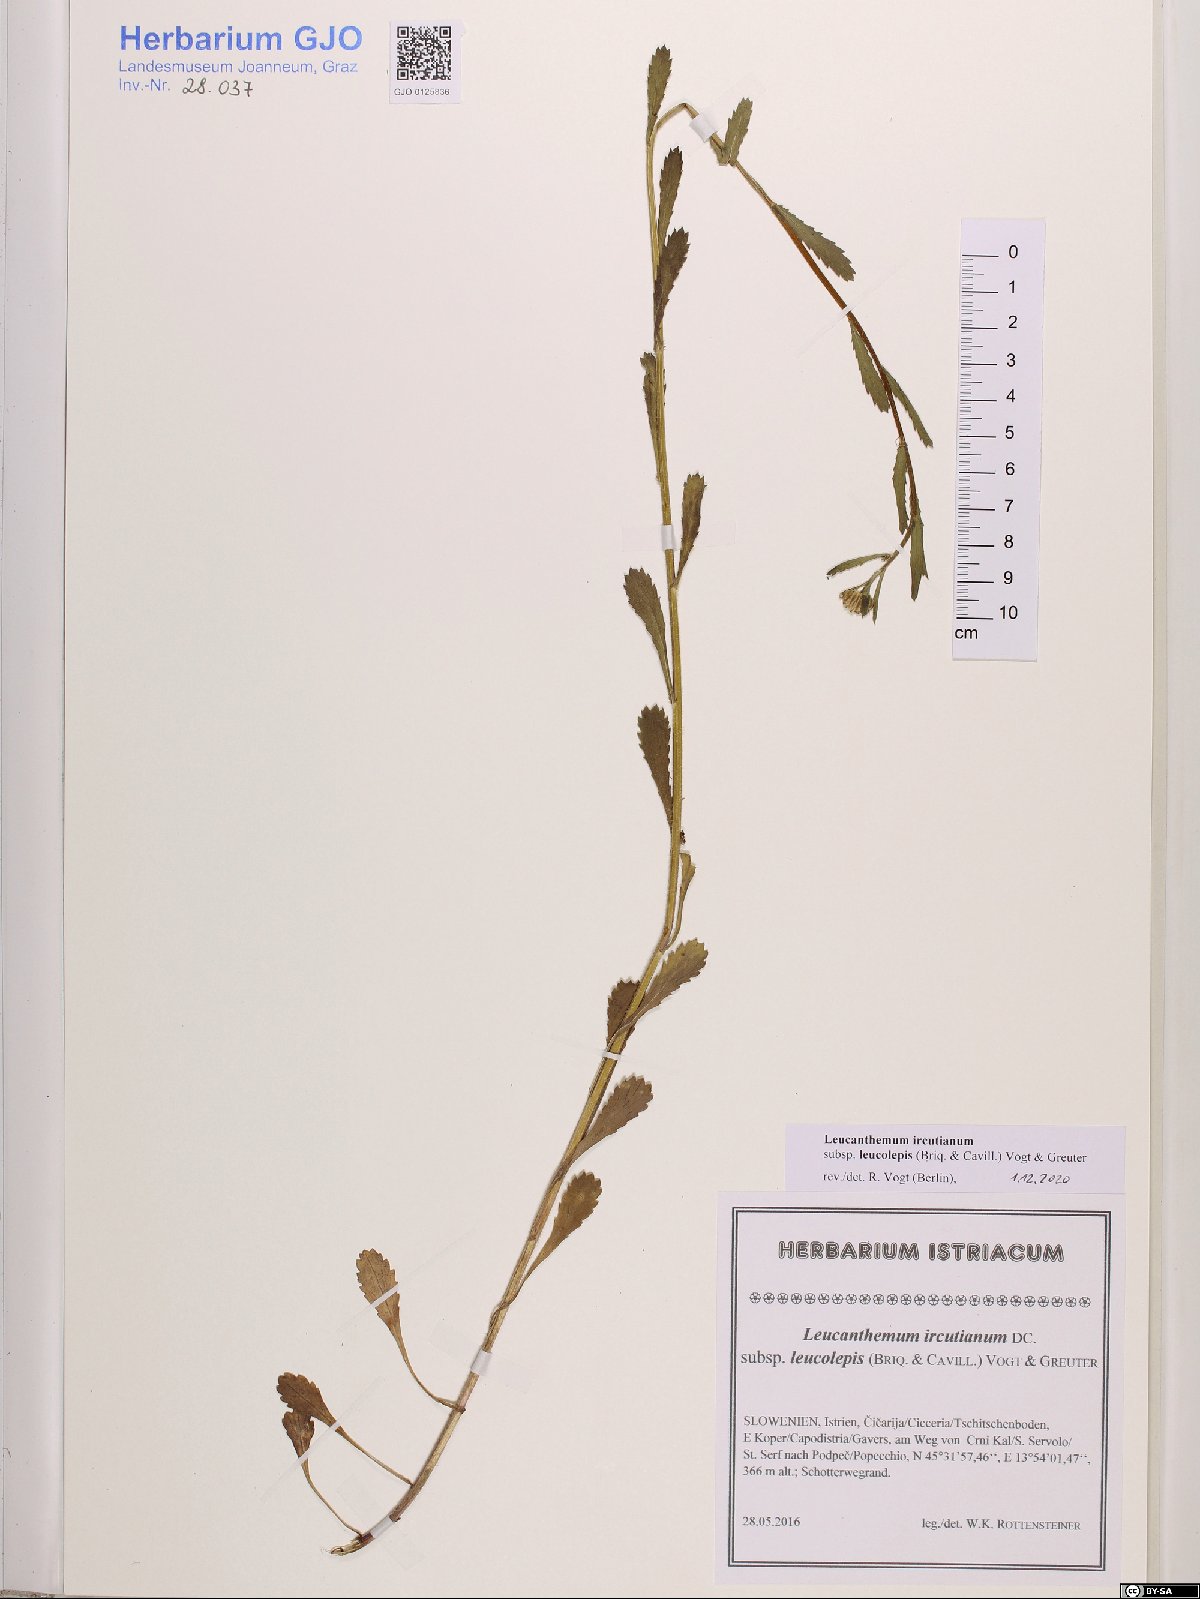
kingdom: Plantae
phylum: Tracheophyta
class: Magnoliopsida
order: Asterales
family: Asteraceae
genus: Leucanthemum
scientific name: Leucanthemum ircutianum
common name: Daisy
